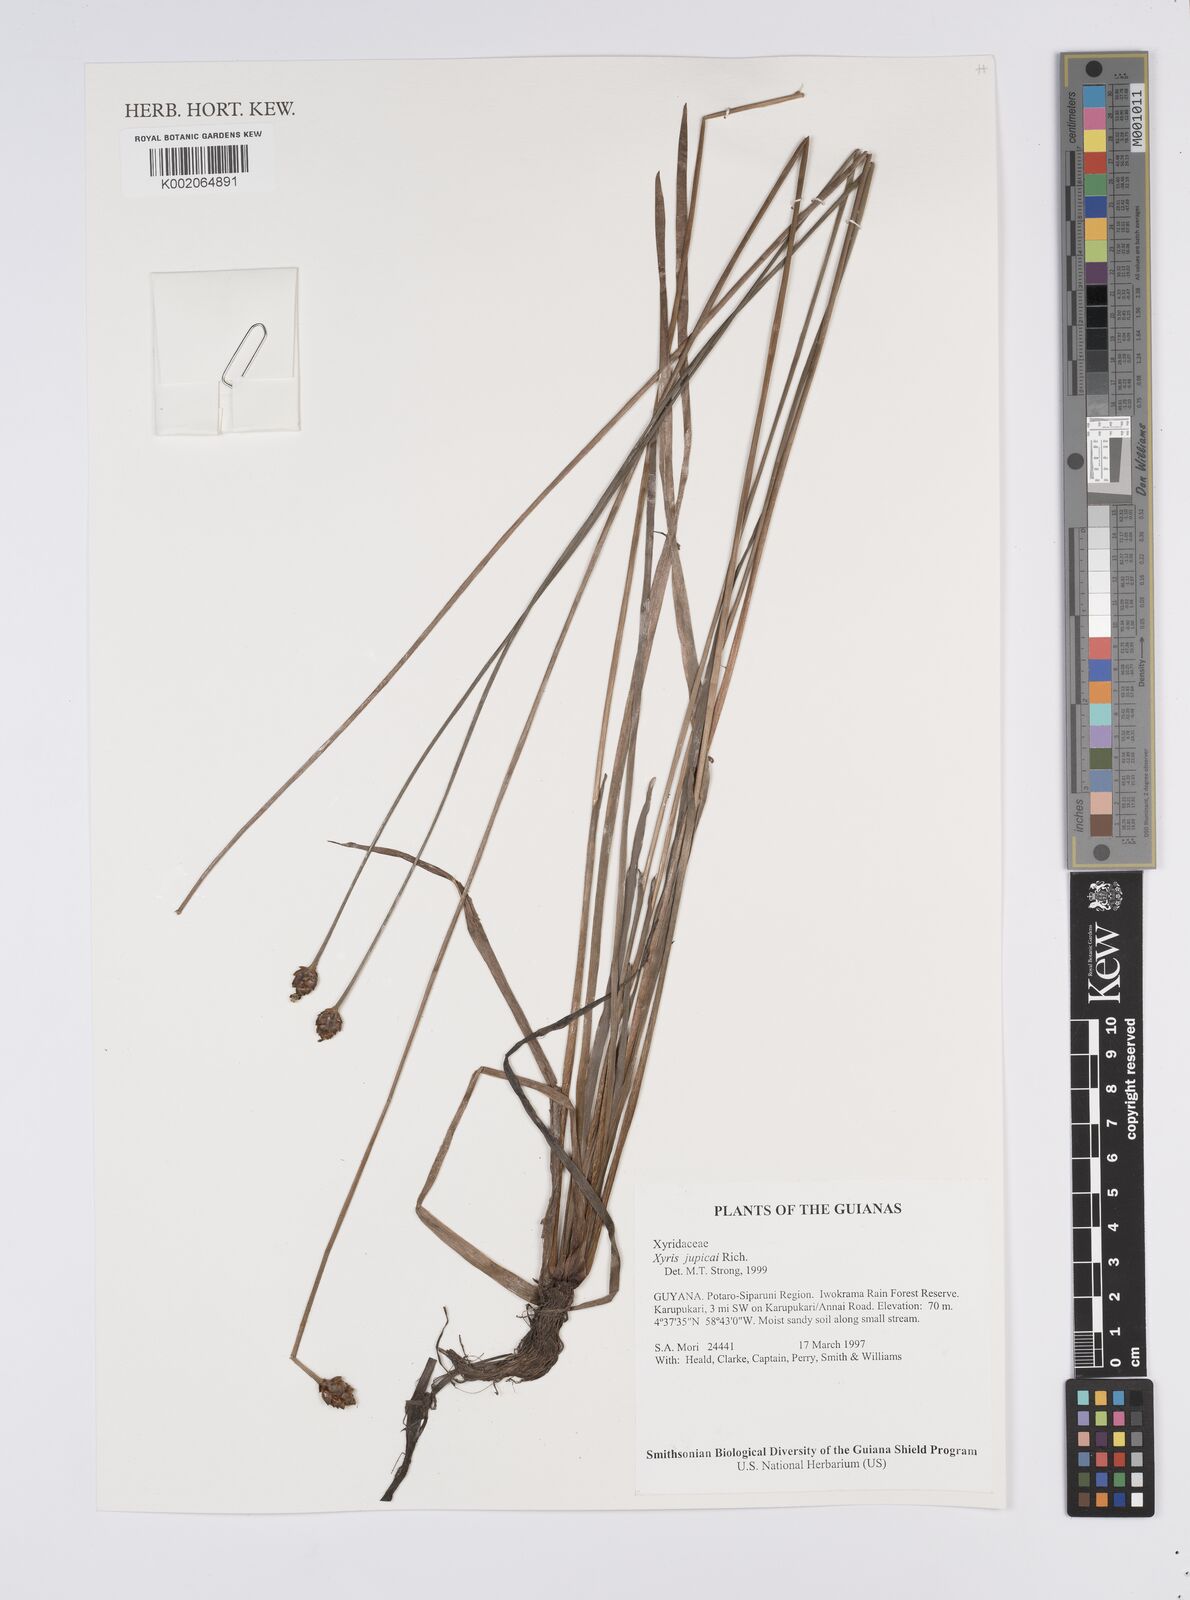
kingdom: Plantae
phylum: Tracheophyta
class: Liliopsida
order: Poales
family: Xyridaceae
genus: Xyris
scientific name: Xyris jupicai
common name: Richard's yelloweyed grass
